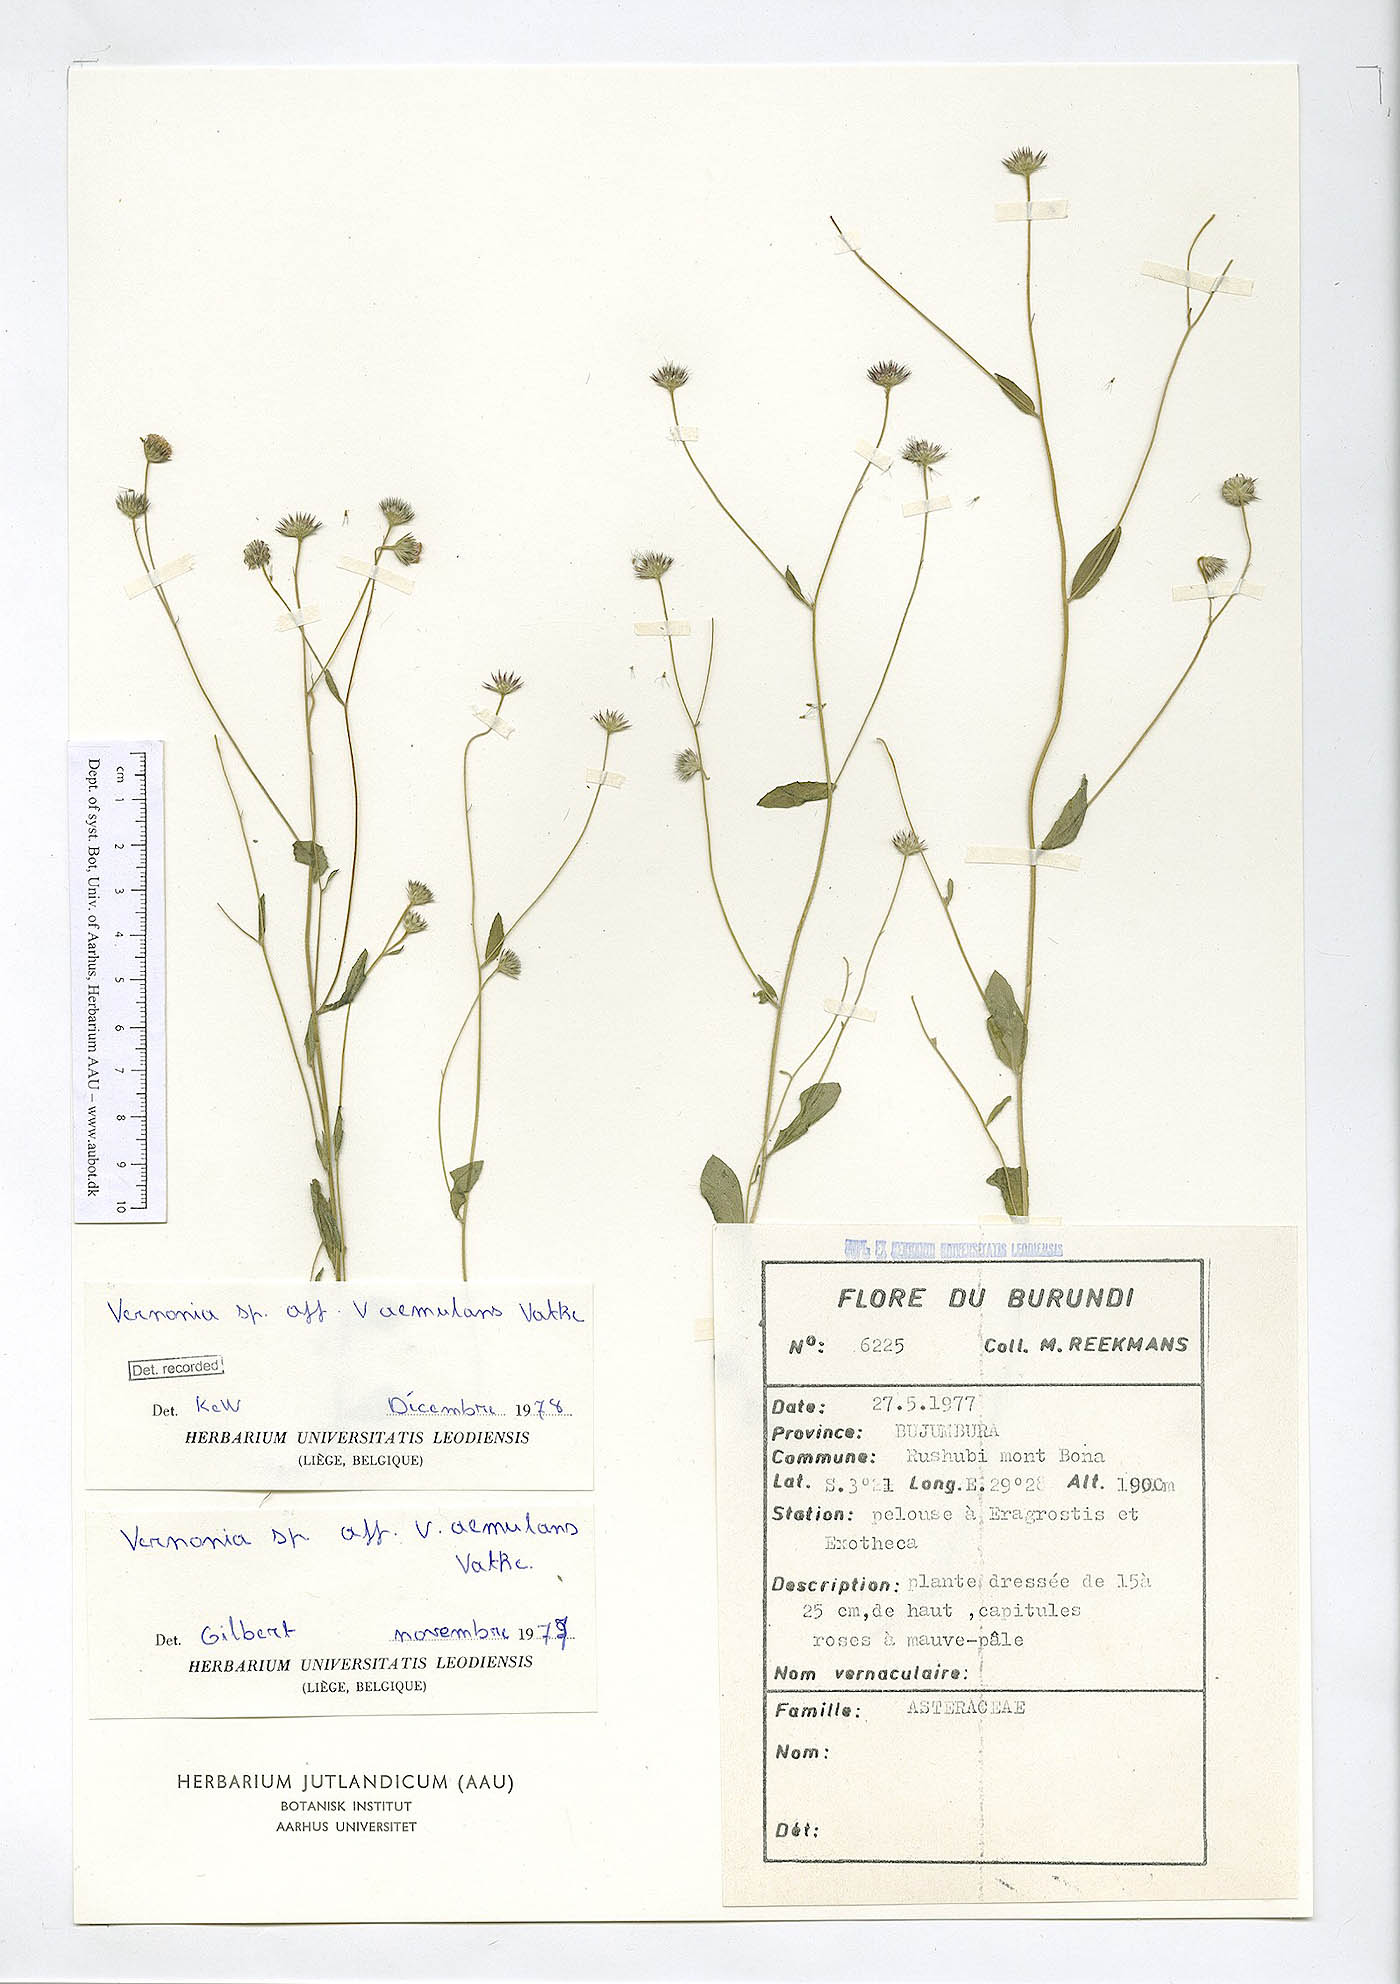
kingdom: Plantae
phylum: Tracheophyta
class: Magnoliopsida
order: Asterales
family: Asteraceae
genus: Vernonia
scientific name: Vernonia
